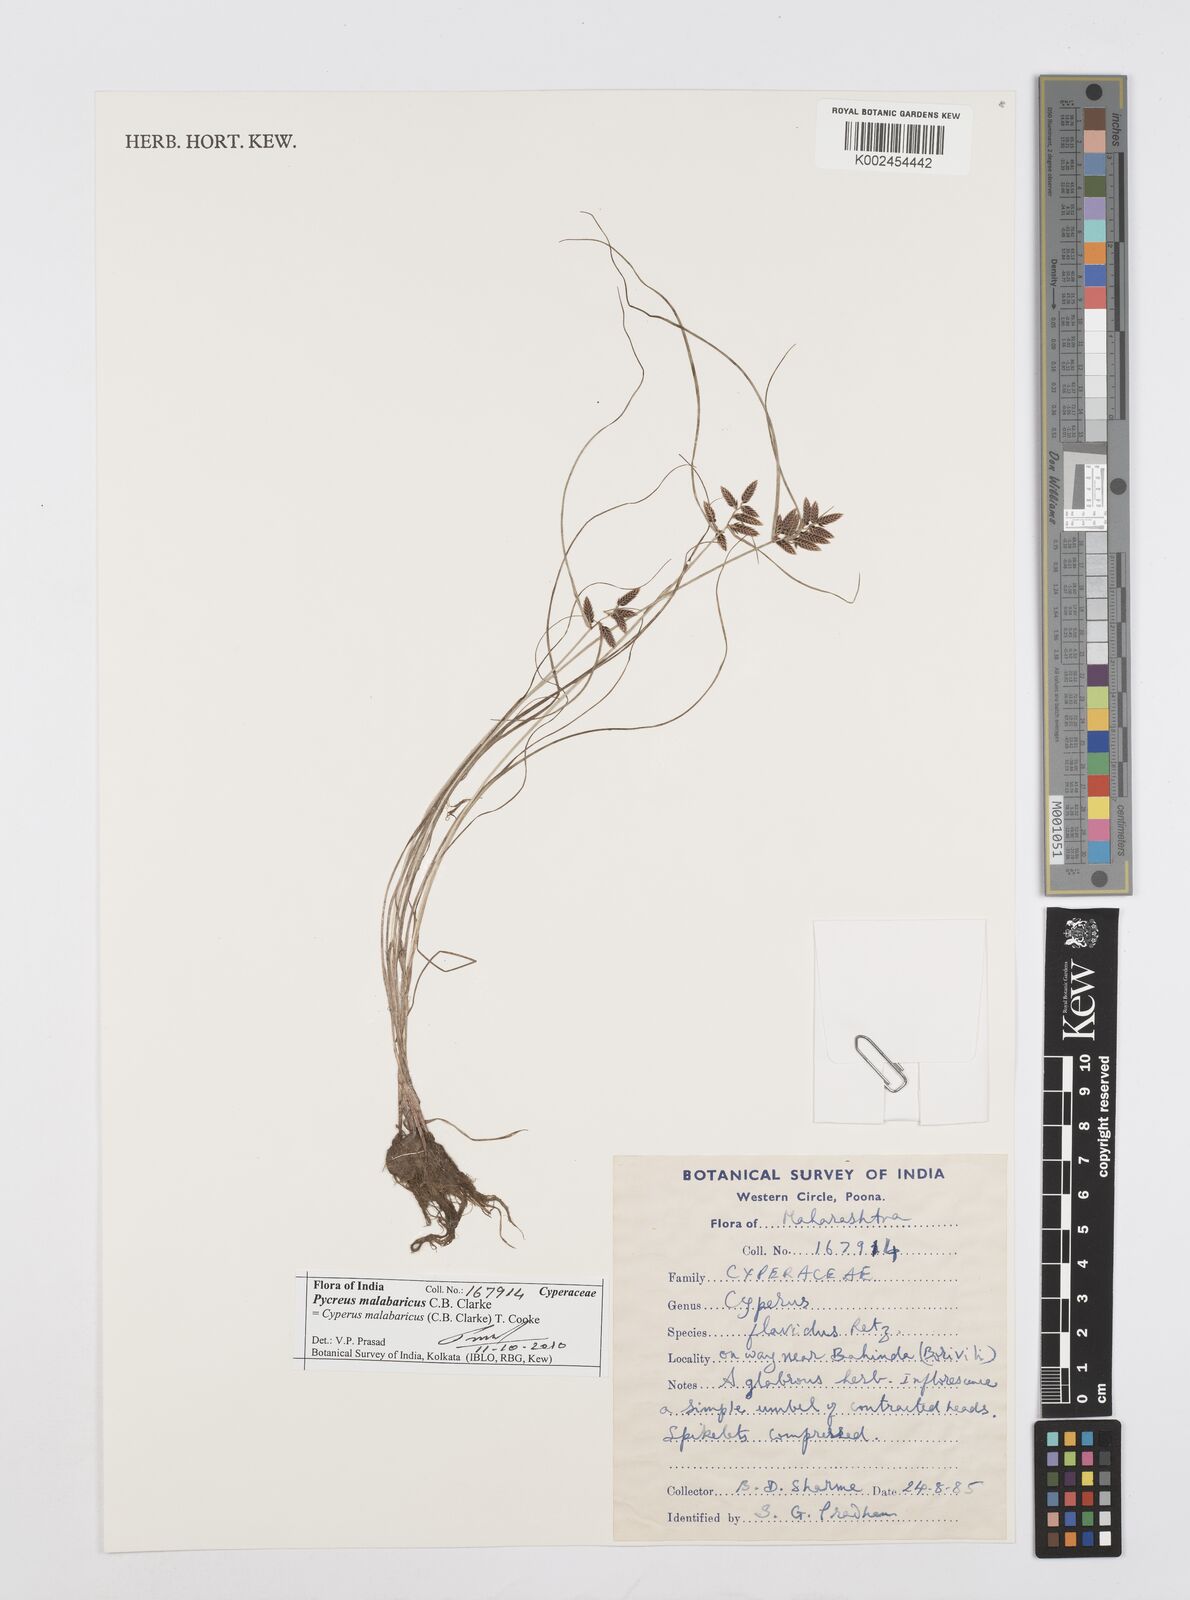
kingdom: Plantae
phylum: Tracheophyta
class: Liliopsida
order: Poales
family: Cyperaceae
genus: Cyperus
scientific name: Cyperus malabaricus
